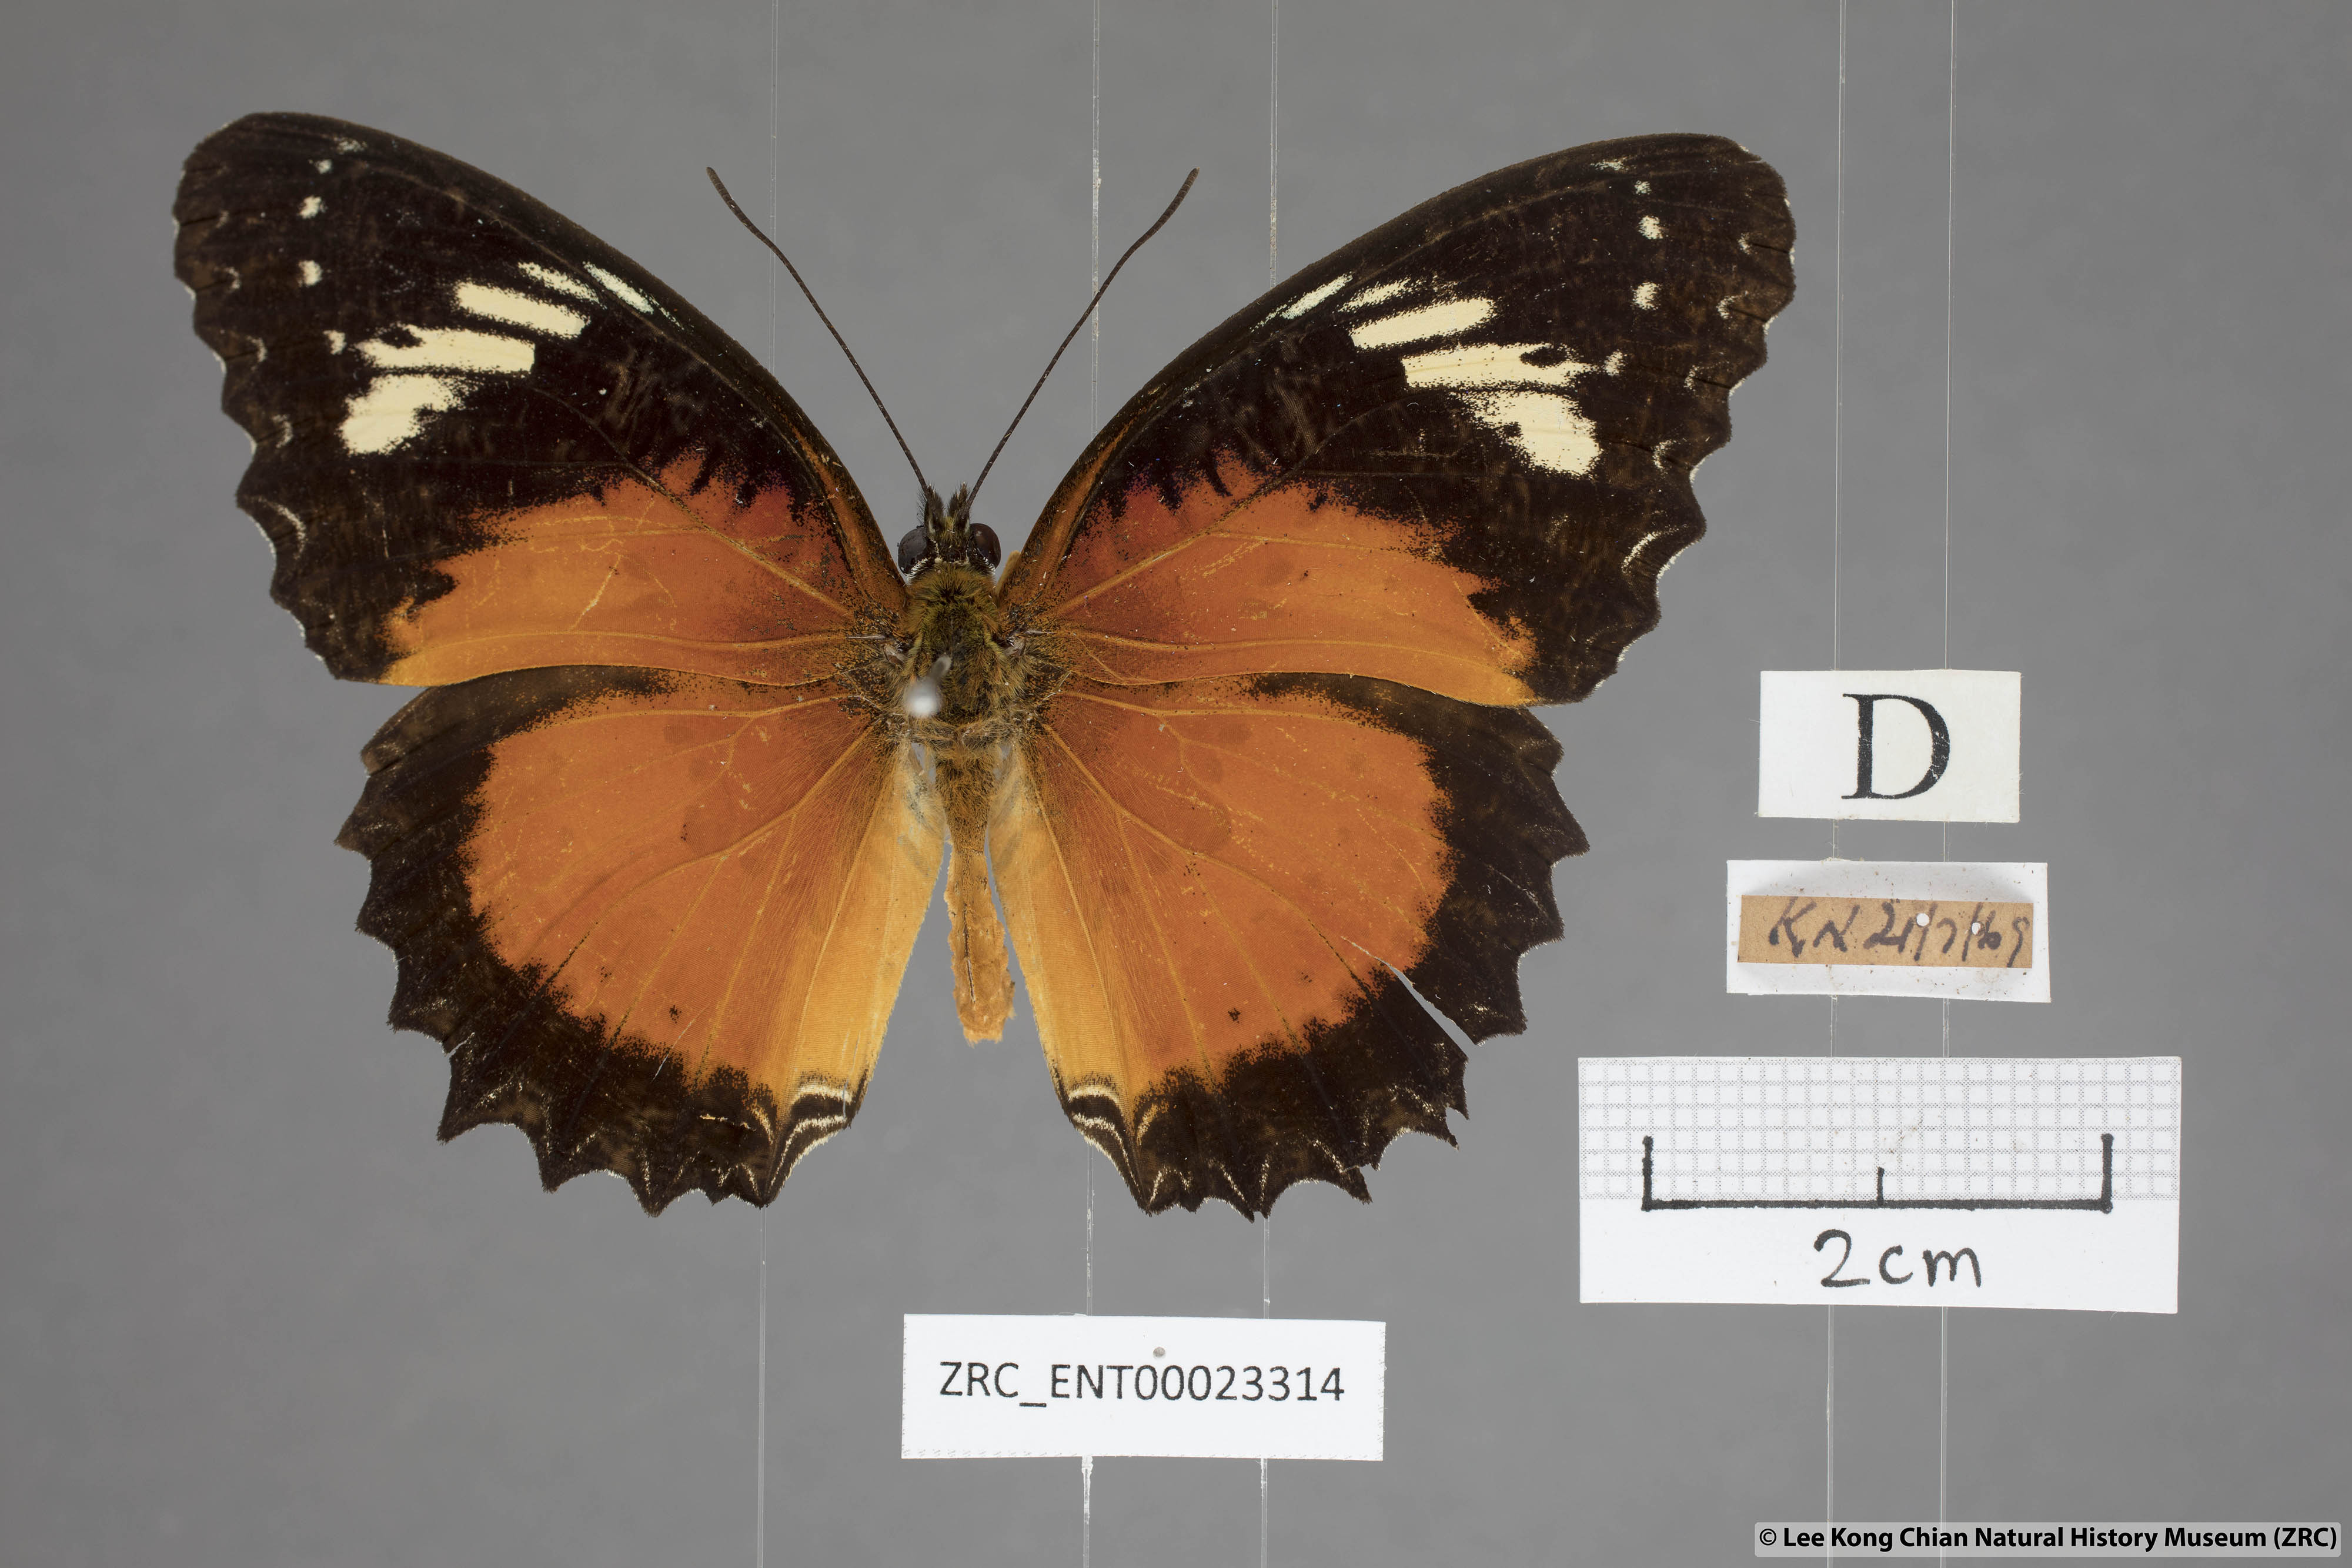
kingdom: Animalia
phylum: Arthropoda
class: Insecta
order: Lepidoptera
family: Nymphalidae
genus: Cethosia
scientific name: Cethosia penthesilea
